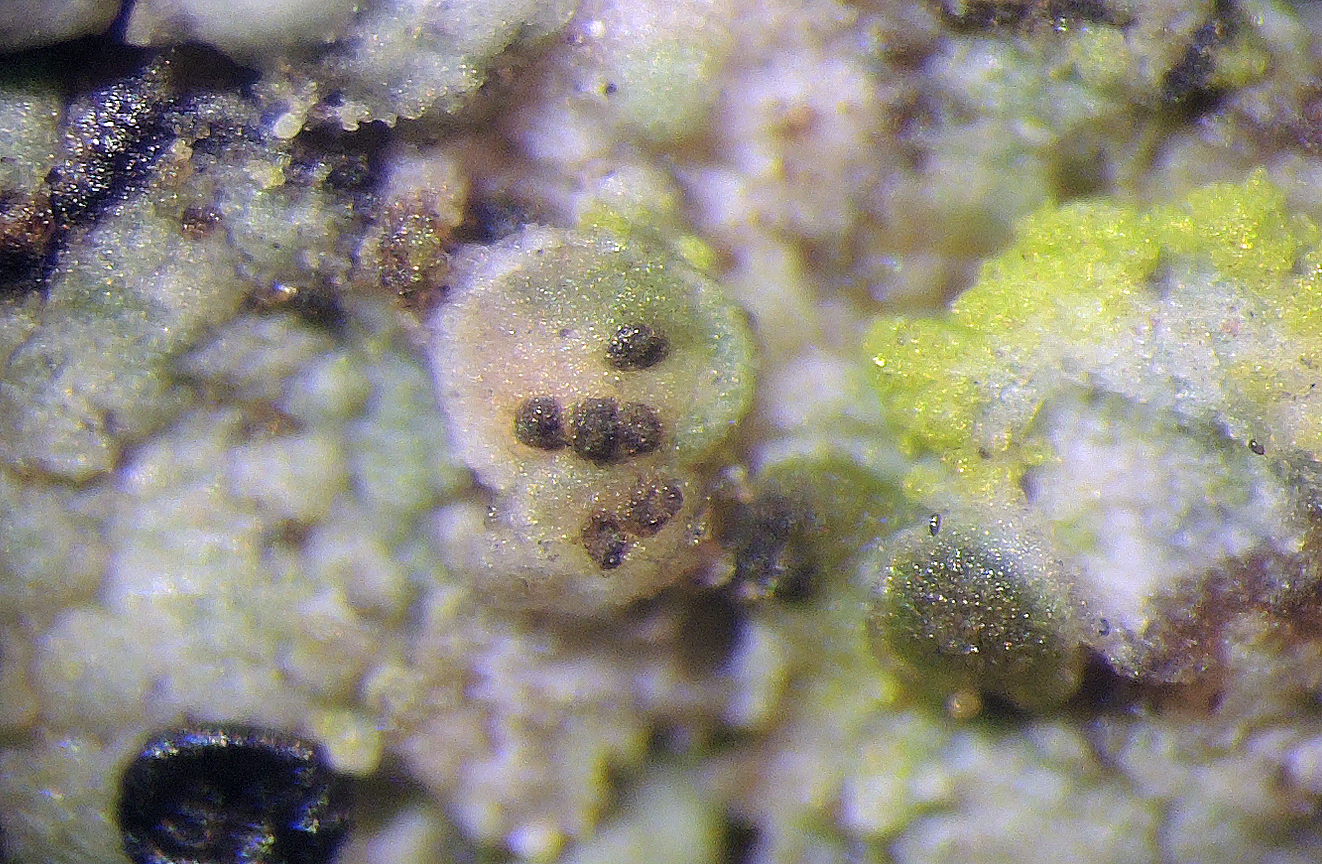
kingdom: Fungi
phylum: Ascomycota
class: Eurotiomycetes
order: Chaetothyriales
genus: Lichenodiplis
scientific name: Lichenodiplis lecanorae
